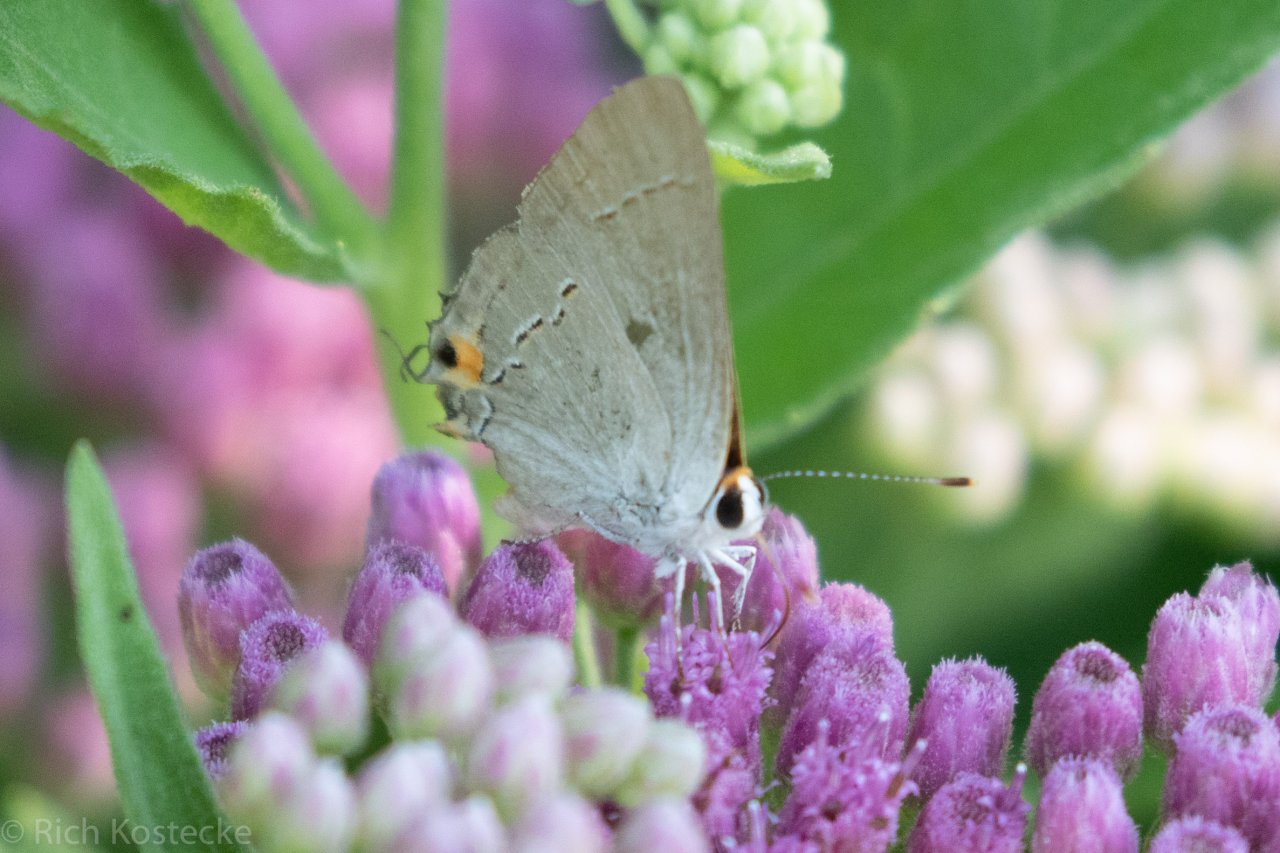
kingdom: Animalia
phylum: Arthropoda
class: Insecta
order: Lepidoptera
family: Lycaenidae
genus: Strymon
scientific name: Strymon melinus
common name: Gray Hairstreak
